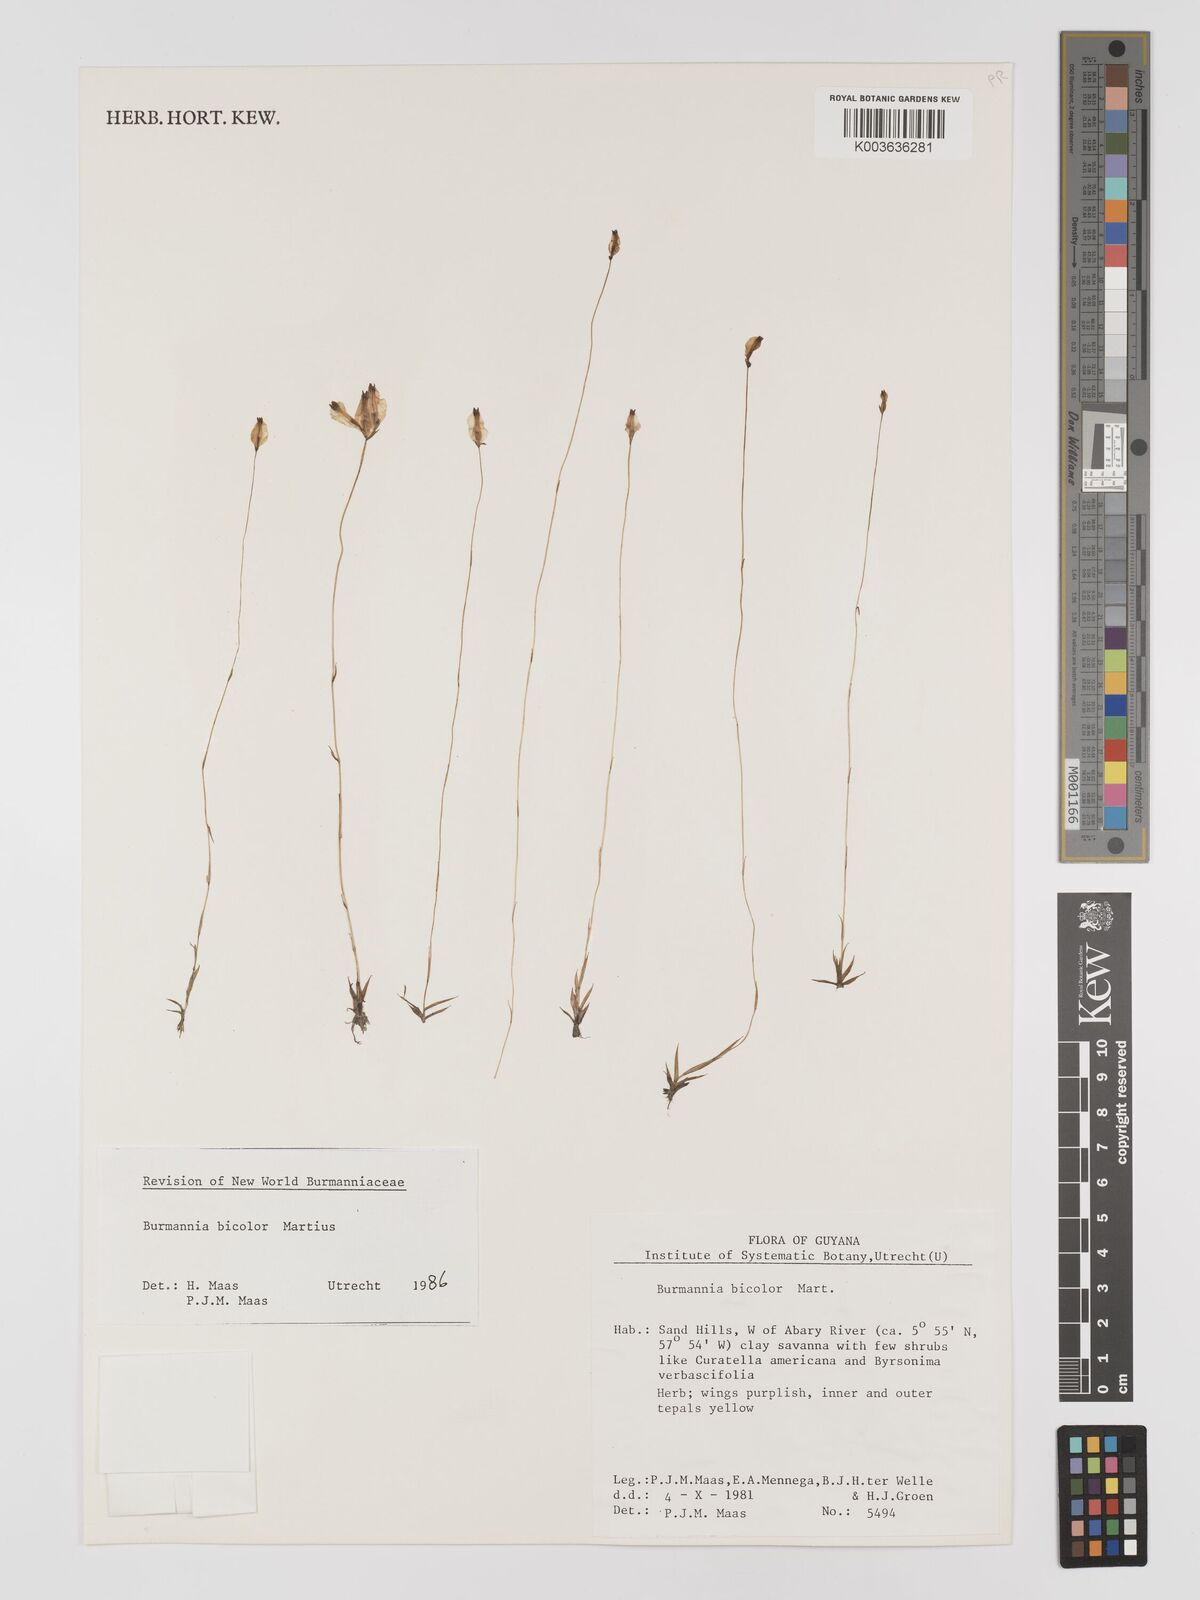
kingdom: Plantae
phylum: Tracheophyta
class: Liliopsida
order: Dioscoreales
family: Burmanniaceae
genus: Burmannia
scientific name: Burmannia bicolor
